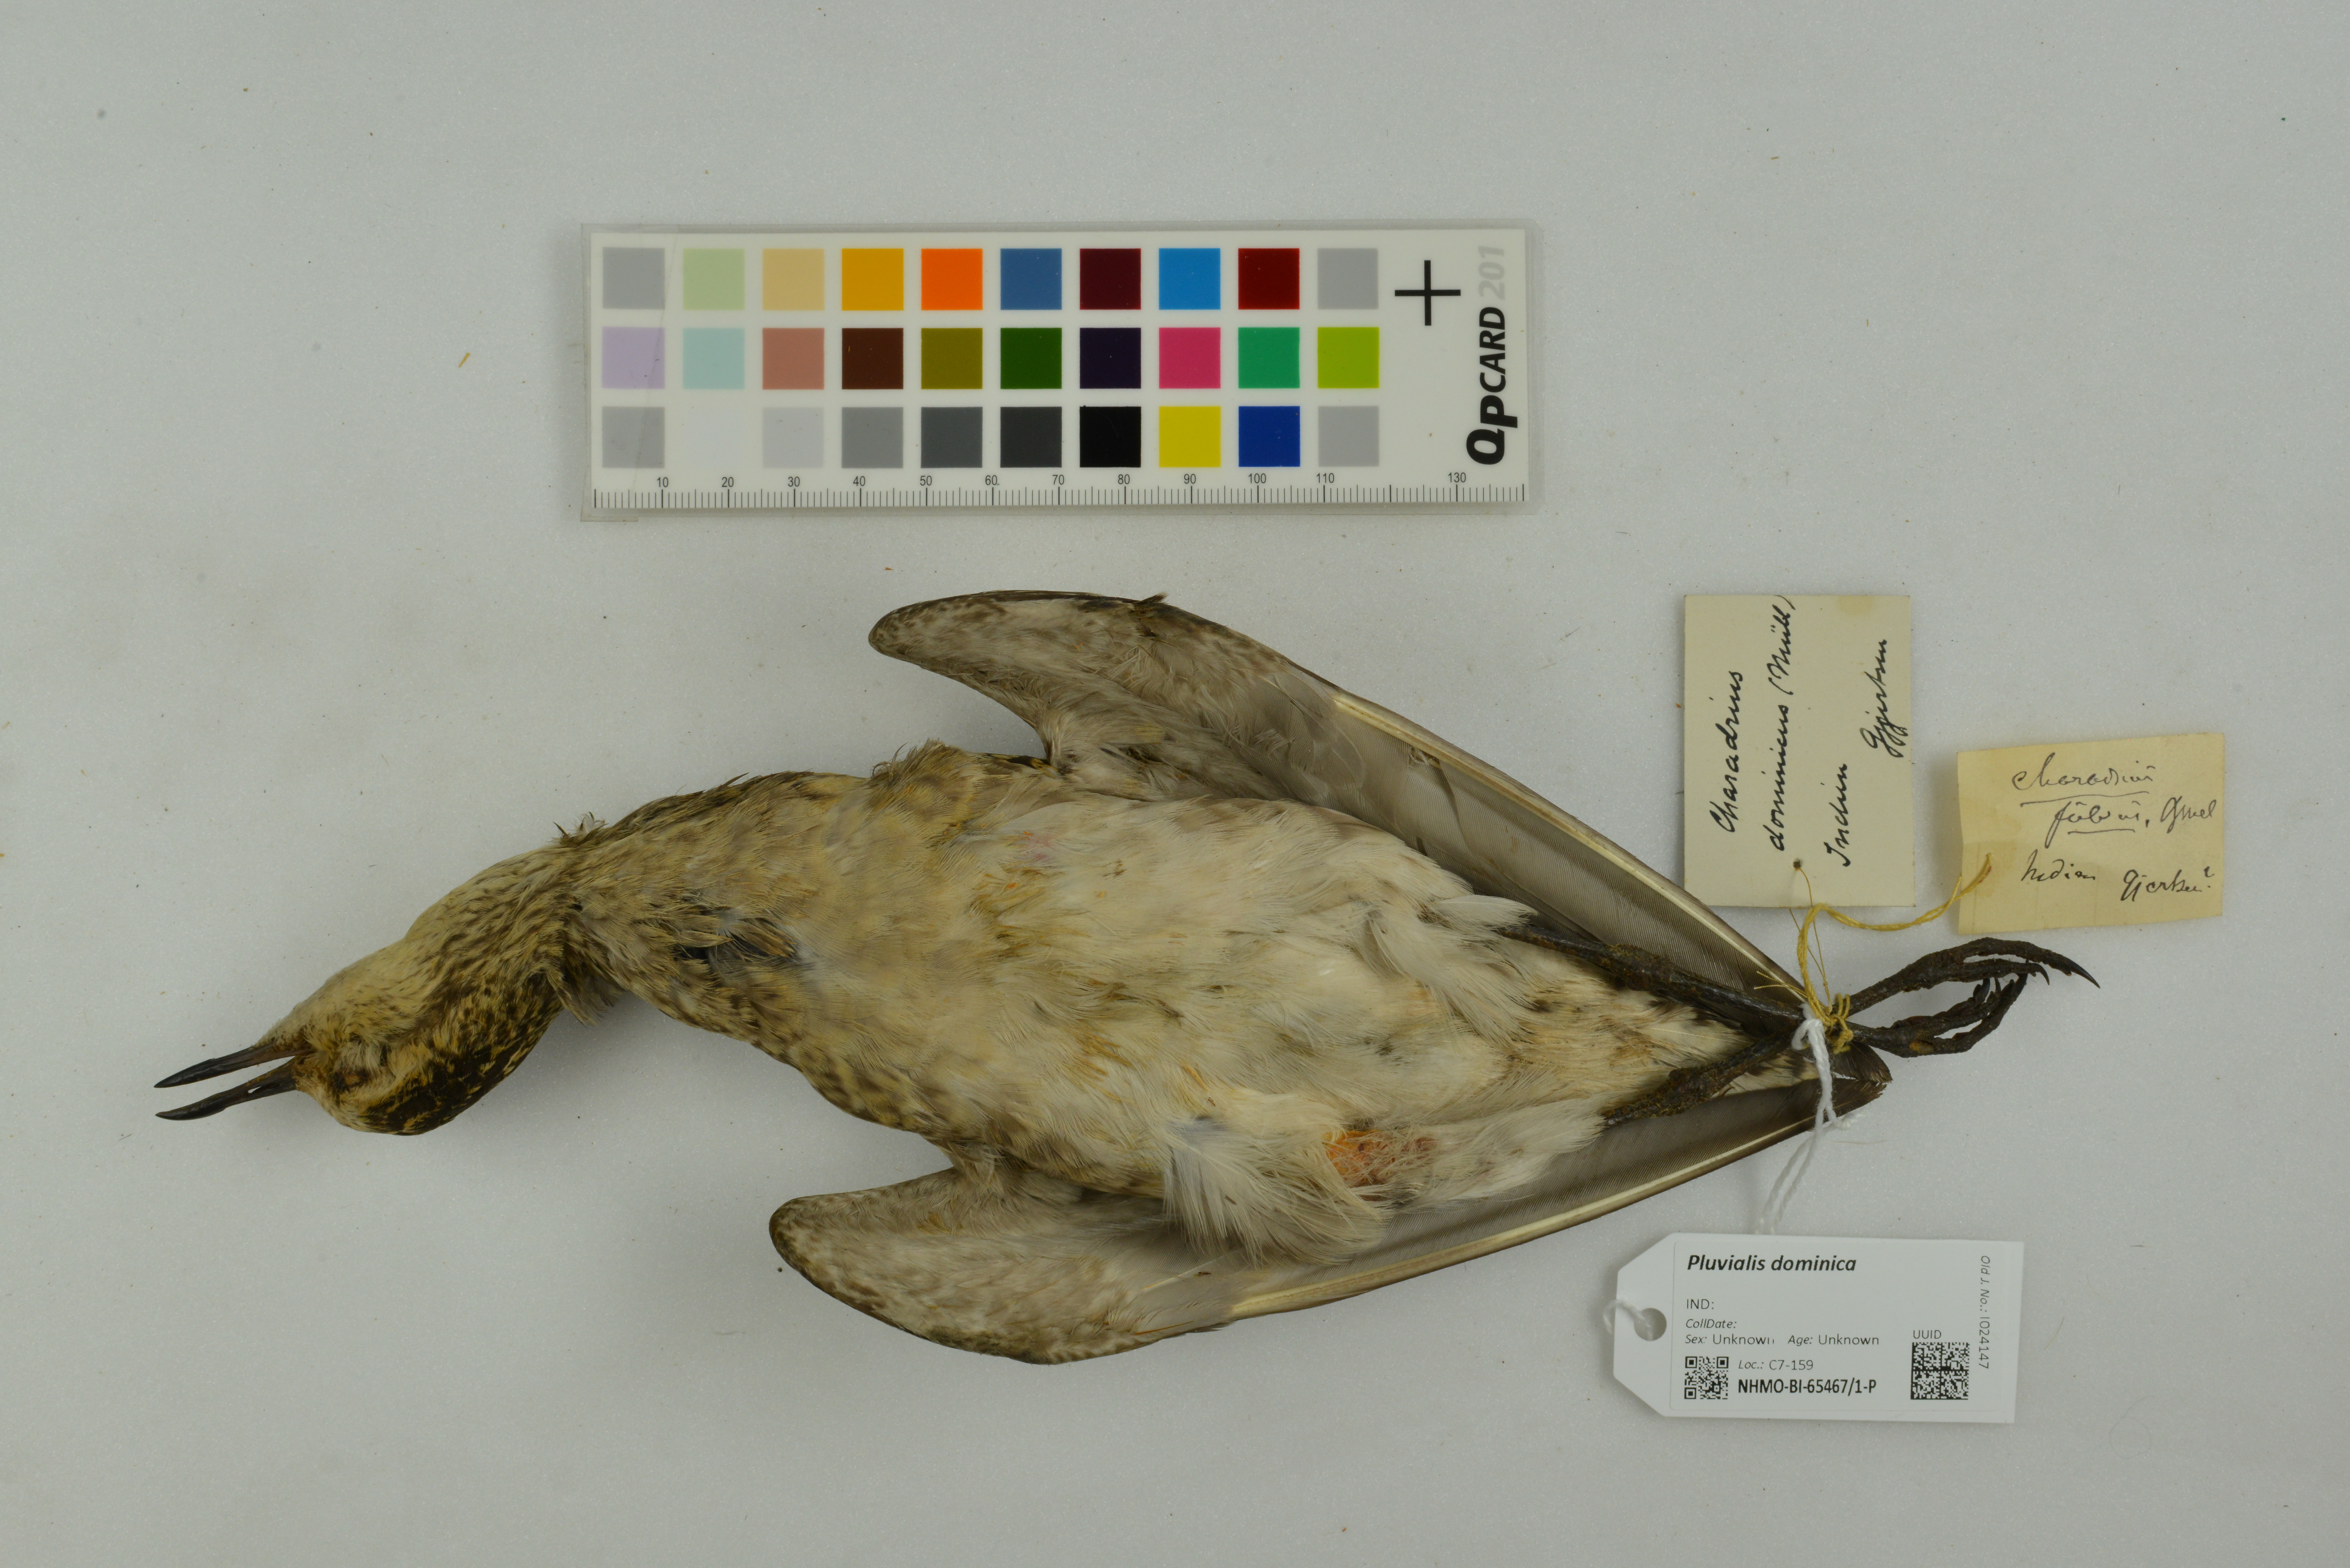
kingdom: Animalia
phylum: Chordata
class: Aves
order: Charadriiformes
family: Charadriidae
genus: Pluvialis
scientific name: Pluvialis dominica
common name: American golden plover
